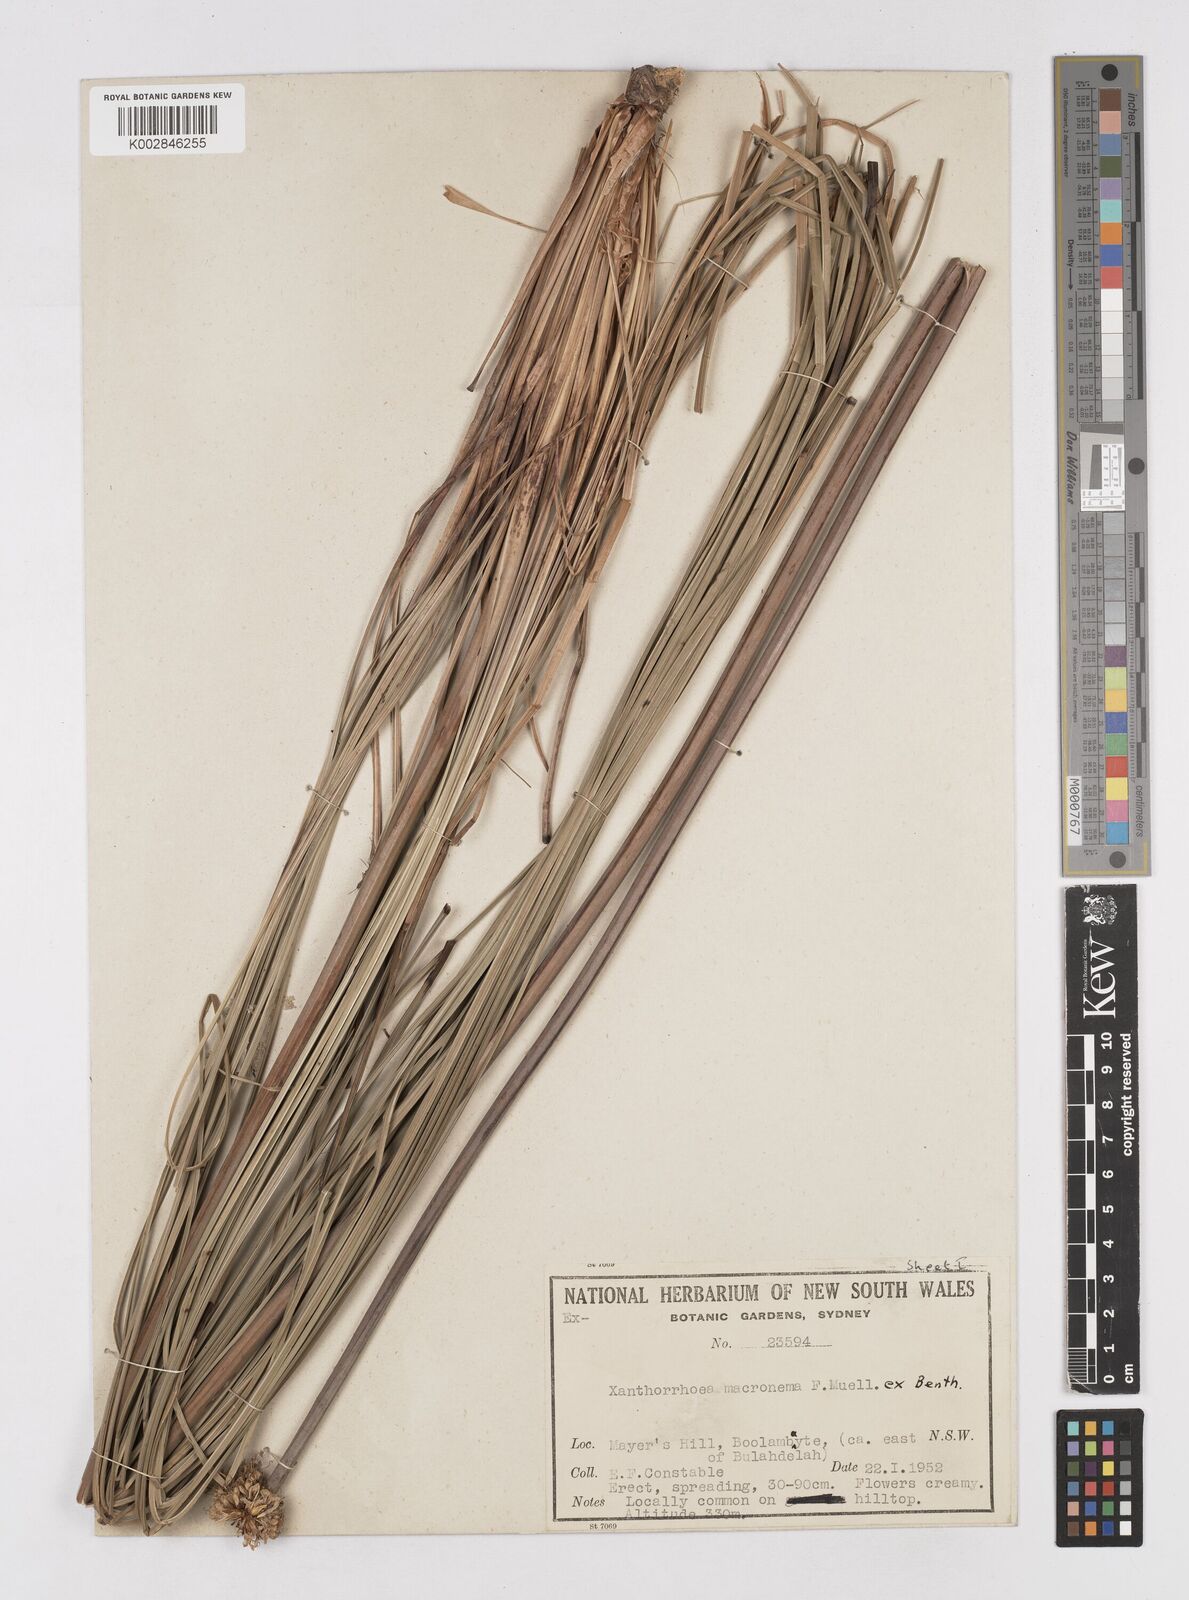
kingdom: Plantae
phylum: Tracheophyta
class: Liliopsida
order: Asparagales
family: Asphodelaceae
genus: Xanthorrhoea
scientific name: Xanthorrhoea macronema
